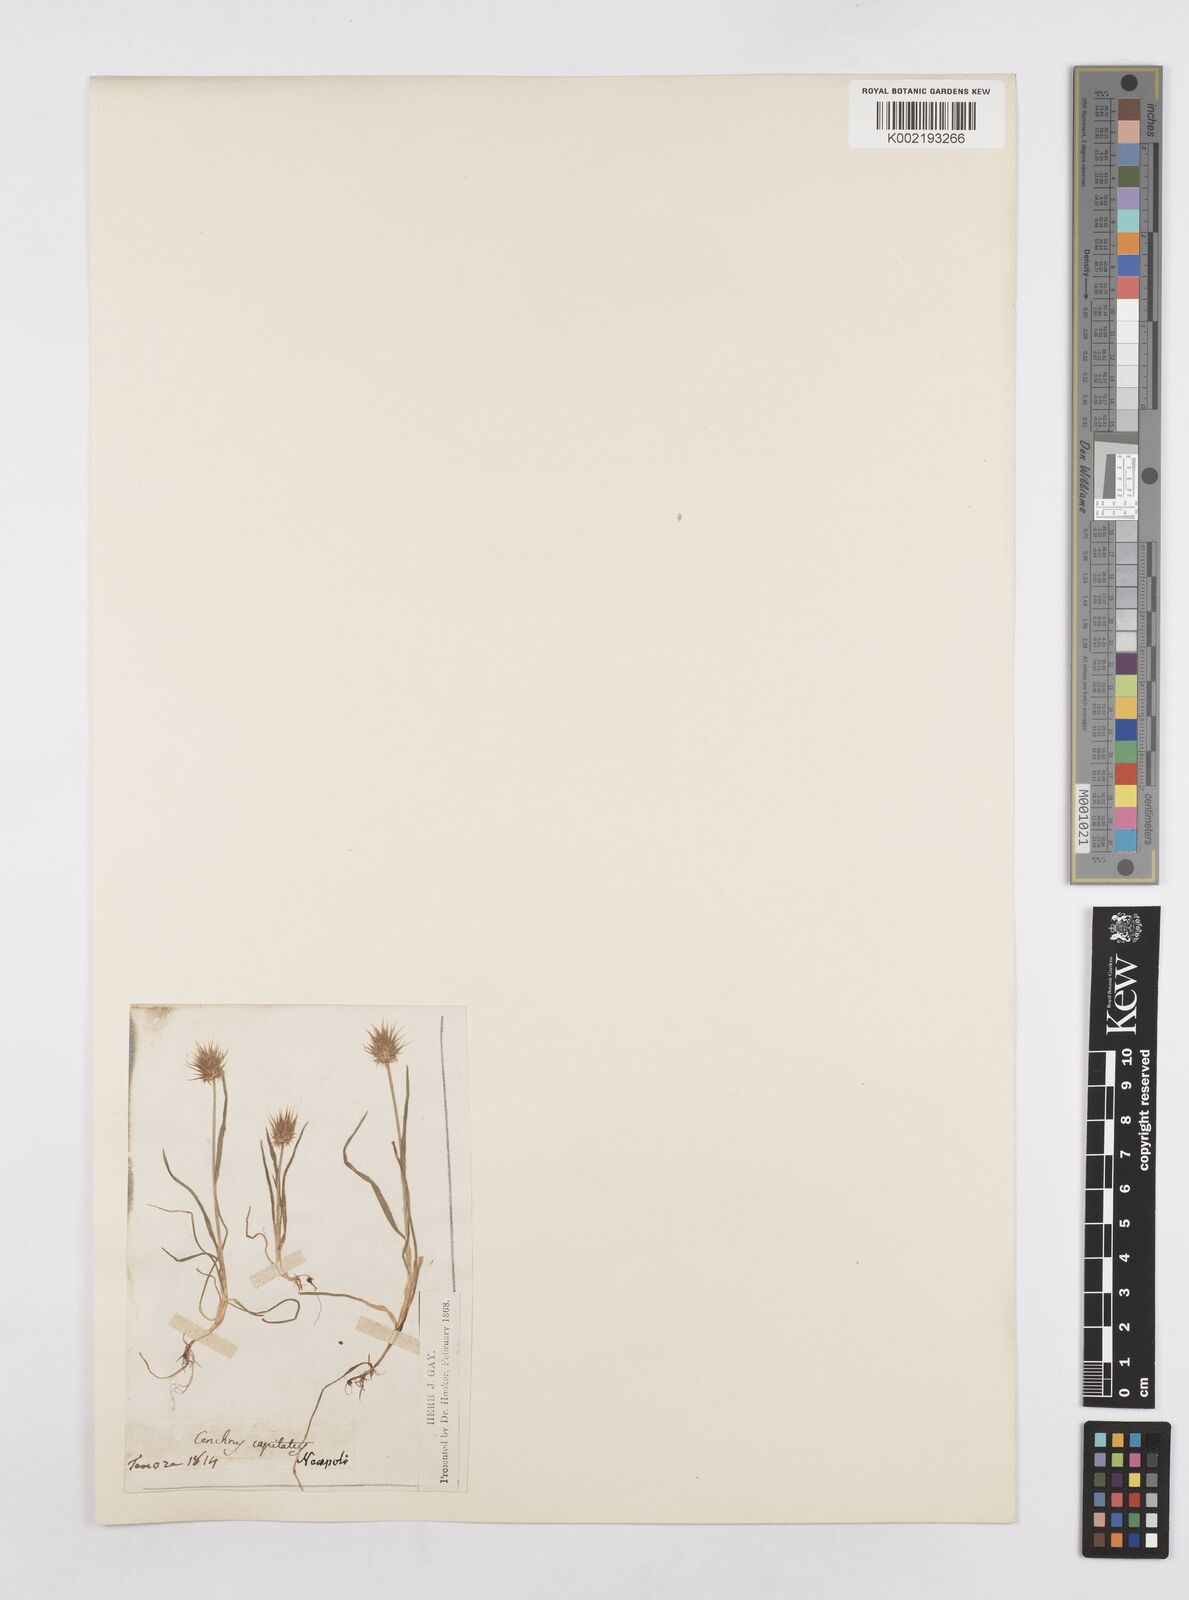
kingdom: Plantae
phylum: Tracheophyta
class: Liliopsida
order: Poales
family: Poaceae
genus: Echinaria
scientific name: Echinaria capitata
